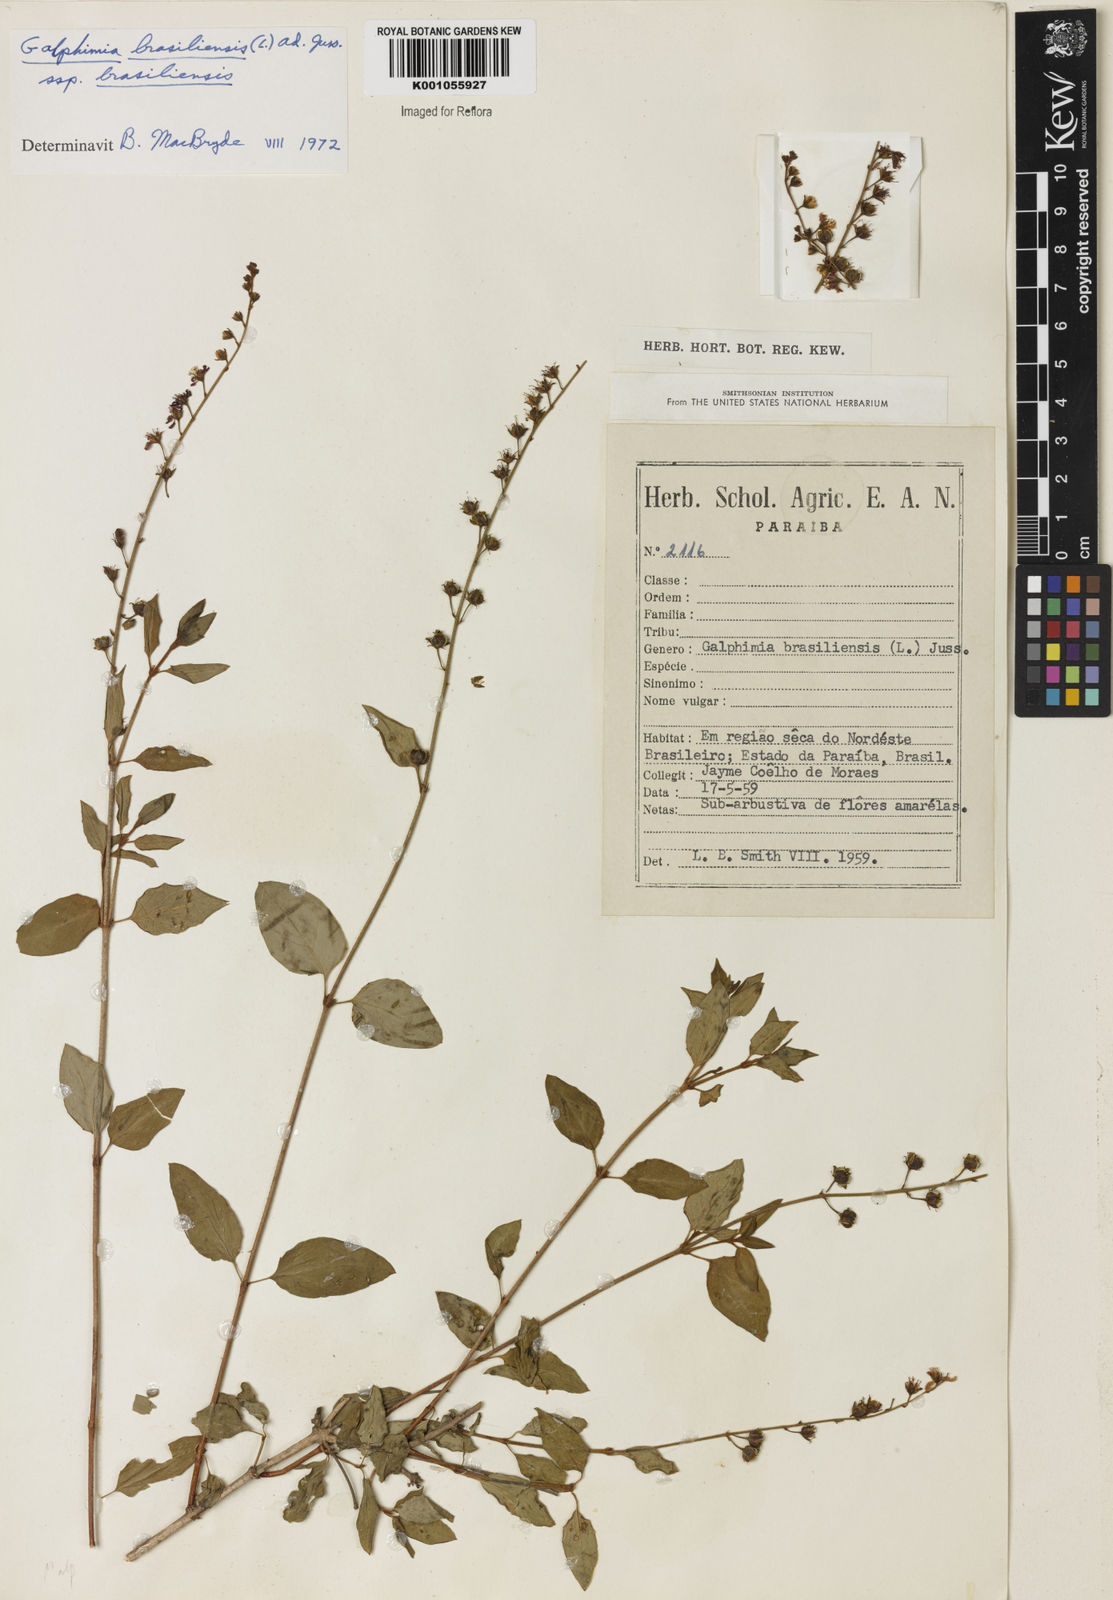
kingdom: Plantae
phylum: Tracheophyta
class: Magnoliopsida
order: Malpighiales
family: Malpighiaceae
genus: Galphimia
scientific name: Galphimia brasiliensis
